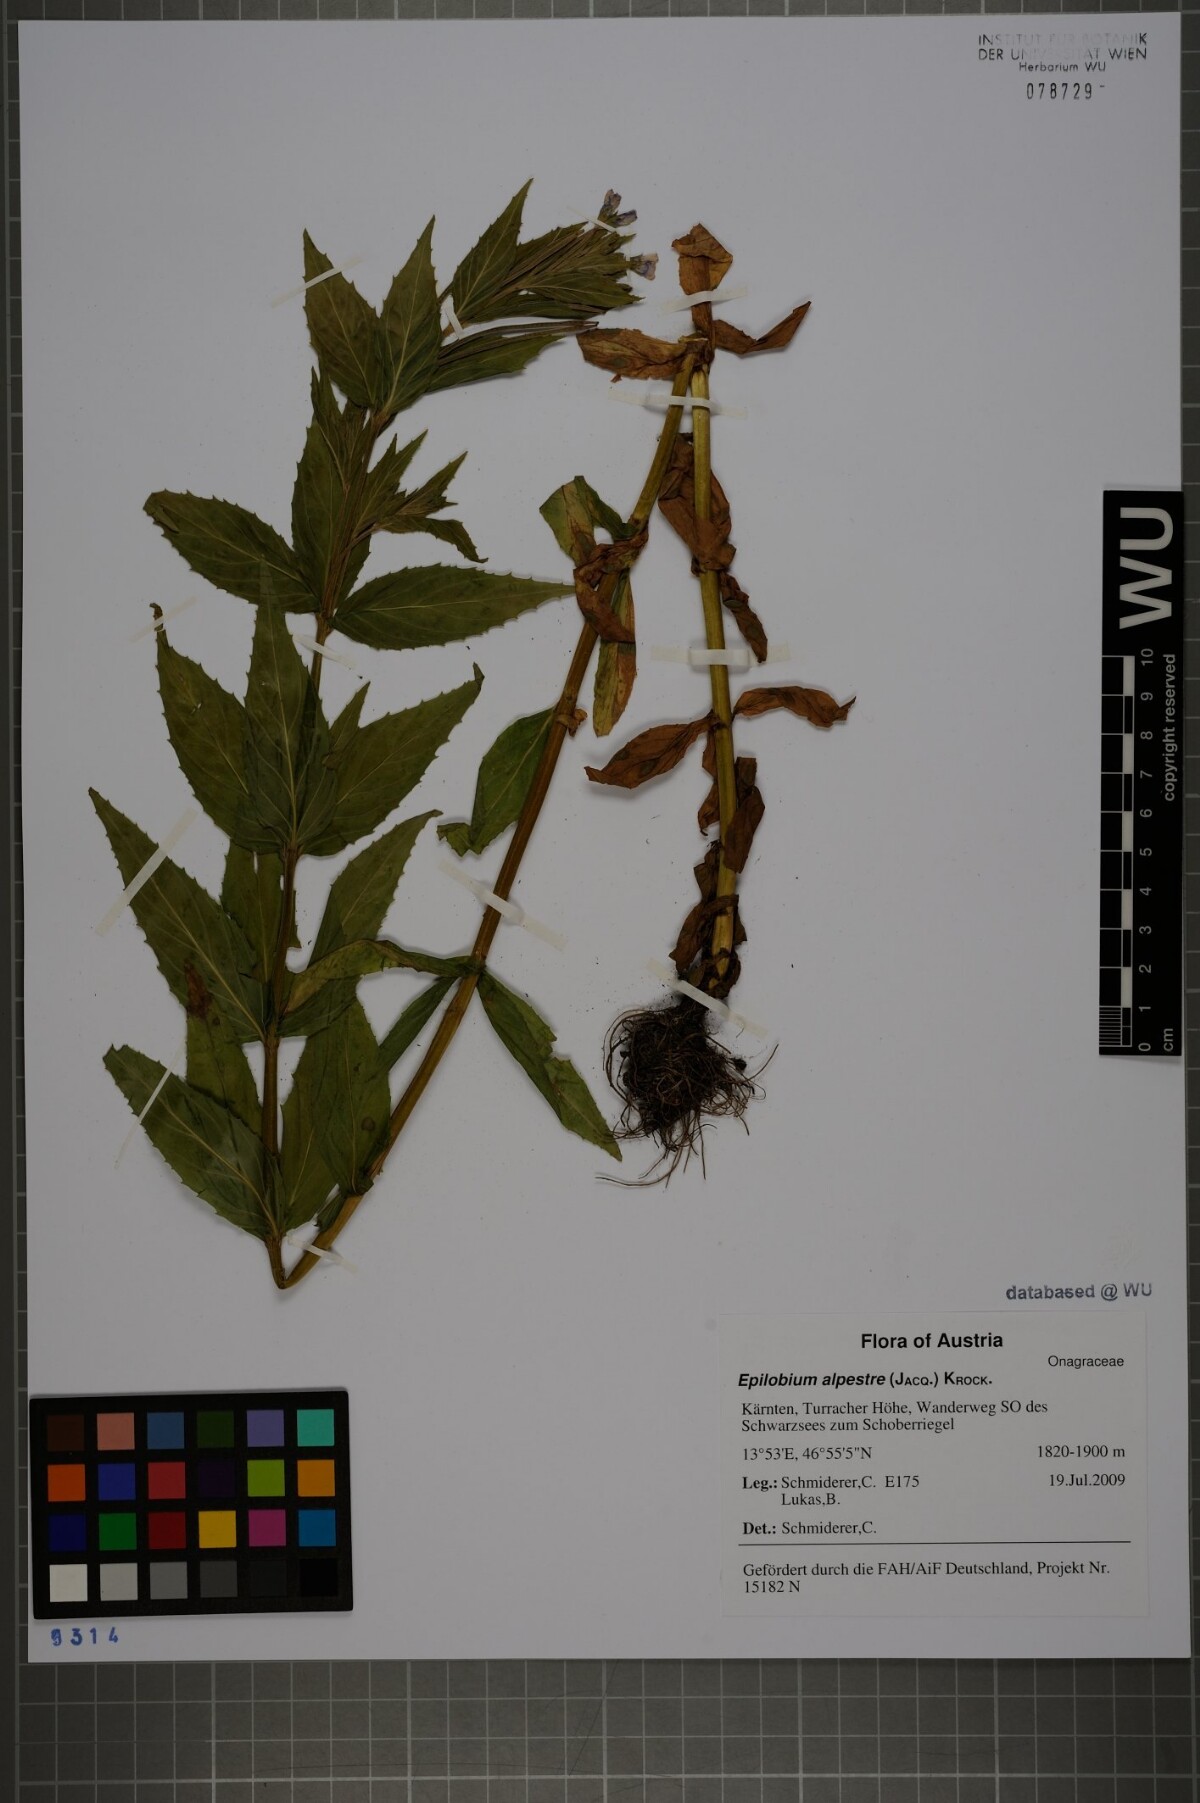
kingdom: Plantae
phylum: Tracheophyta
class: Magnoliopsida
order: Myrtales
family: Onagraceae
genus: Epilobium
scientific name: Epilobium alpestre
